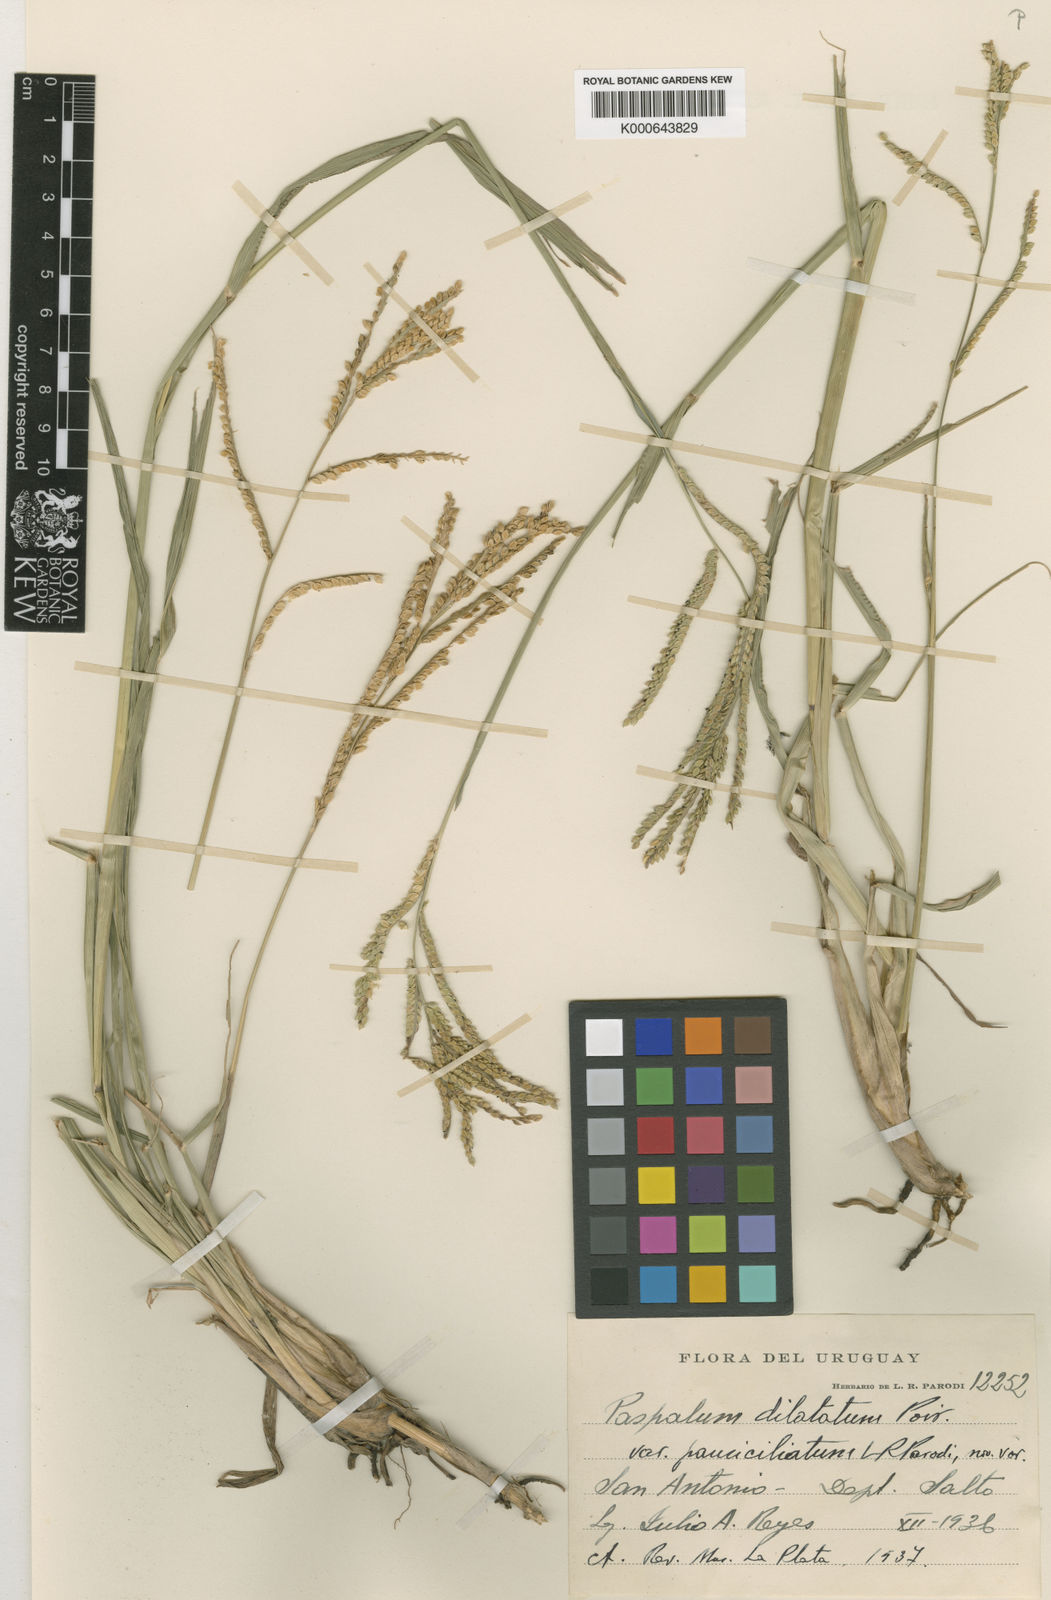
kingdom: Plantae
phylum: Tracheophyta
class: Liliopsida
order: Poales
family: Poaceae
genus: Paspalum
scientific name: Paspalum pauciciliatum
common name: Prostrate dallis grass
